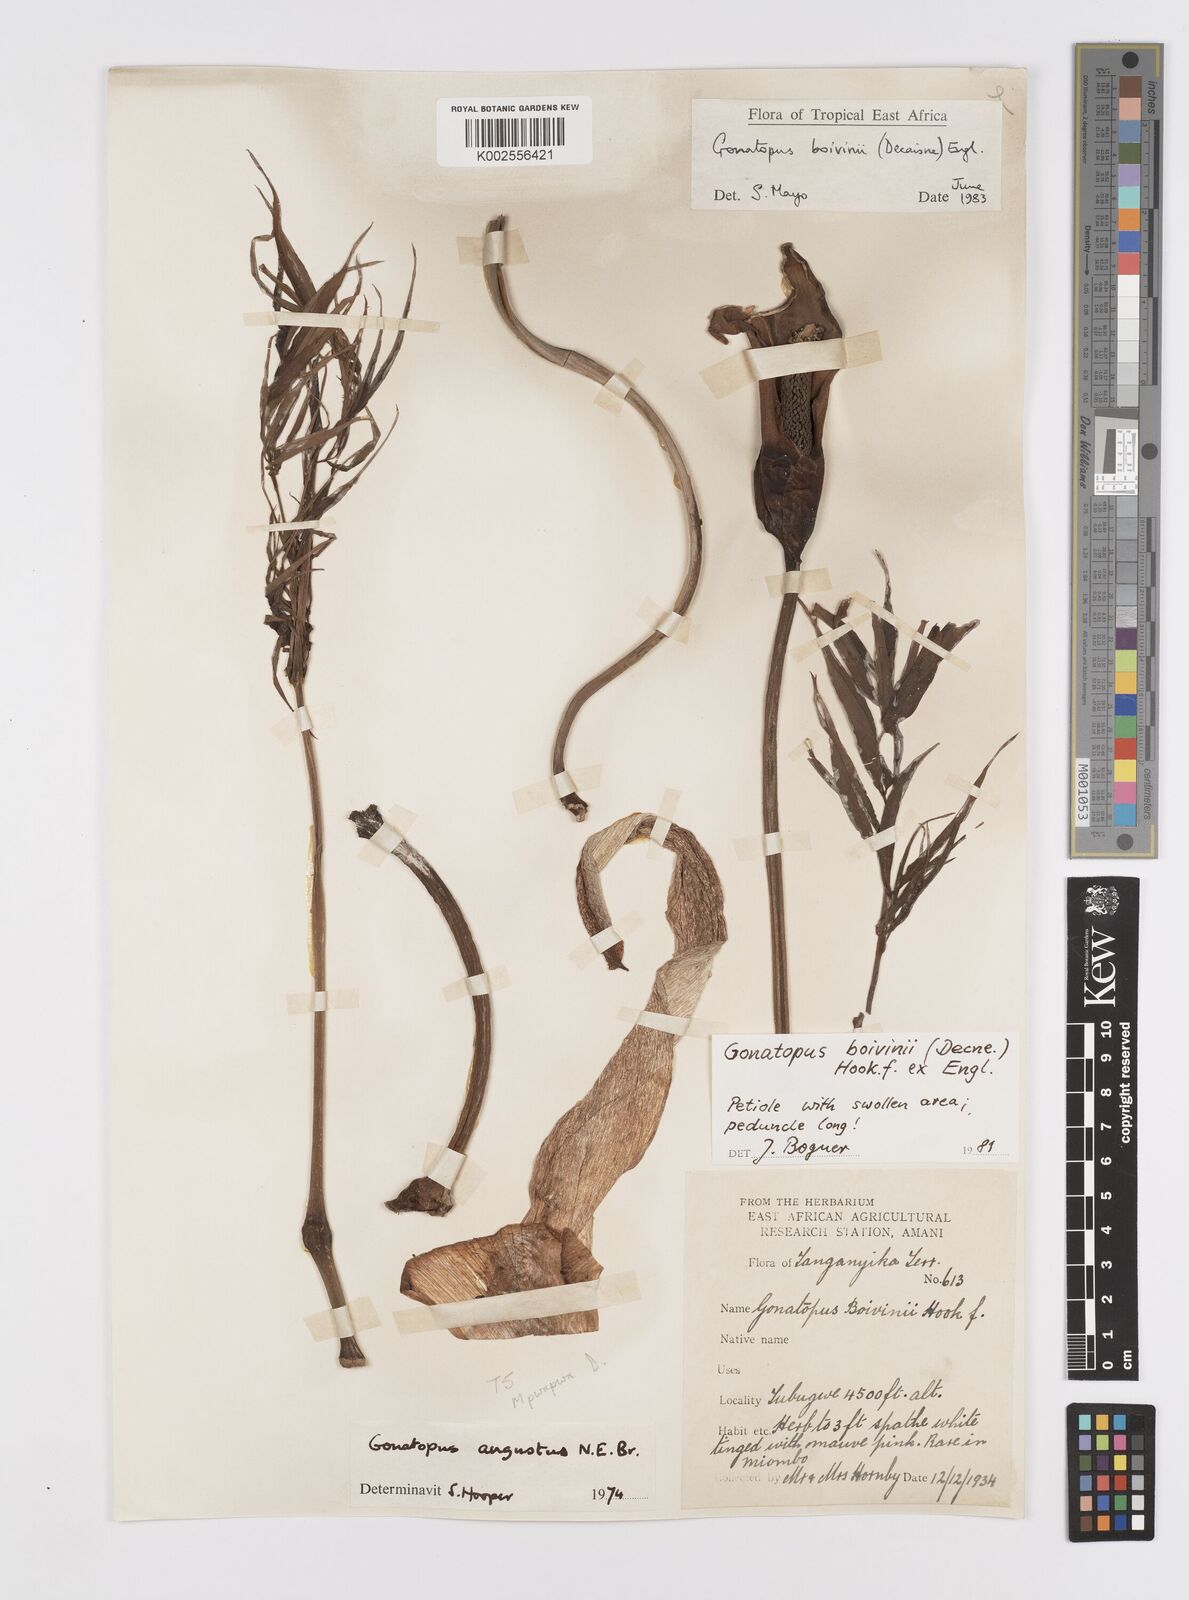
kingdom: Plantae
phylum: Tracheophyta
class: Liliopsida
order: Alismatales
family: Araceae
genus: Gonatopus
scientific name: Gonatopus boivinii
